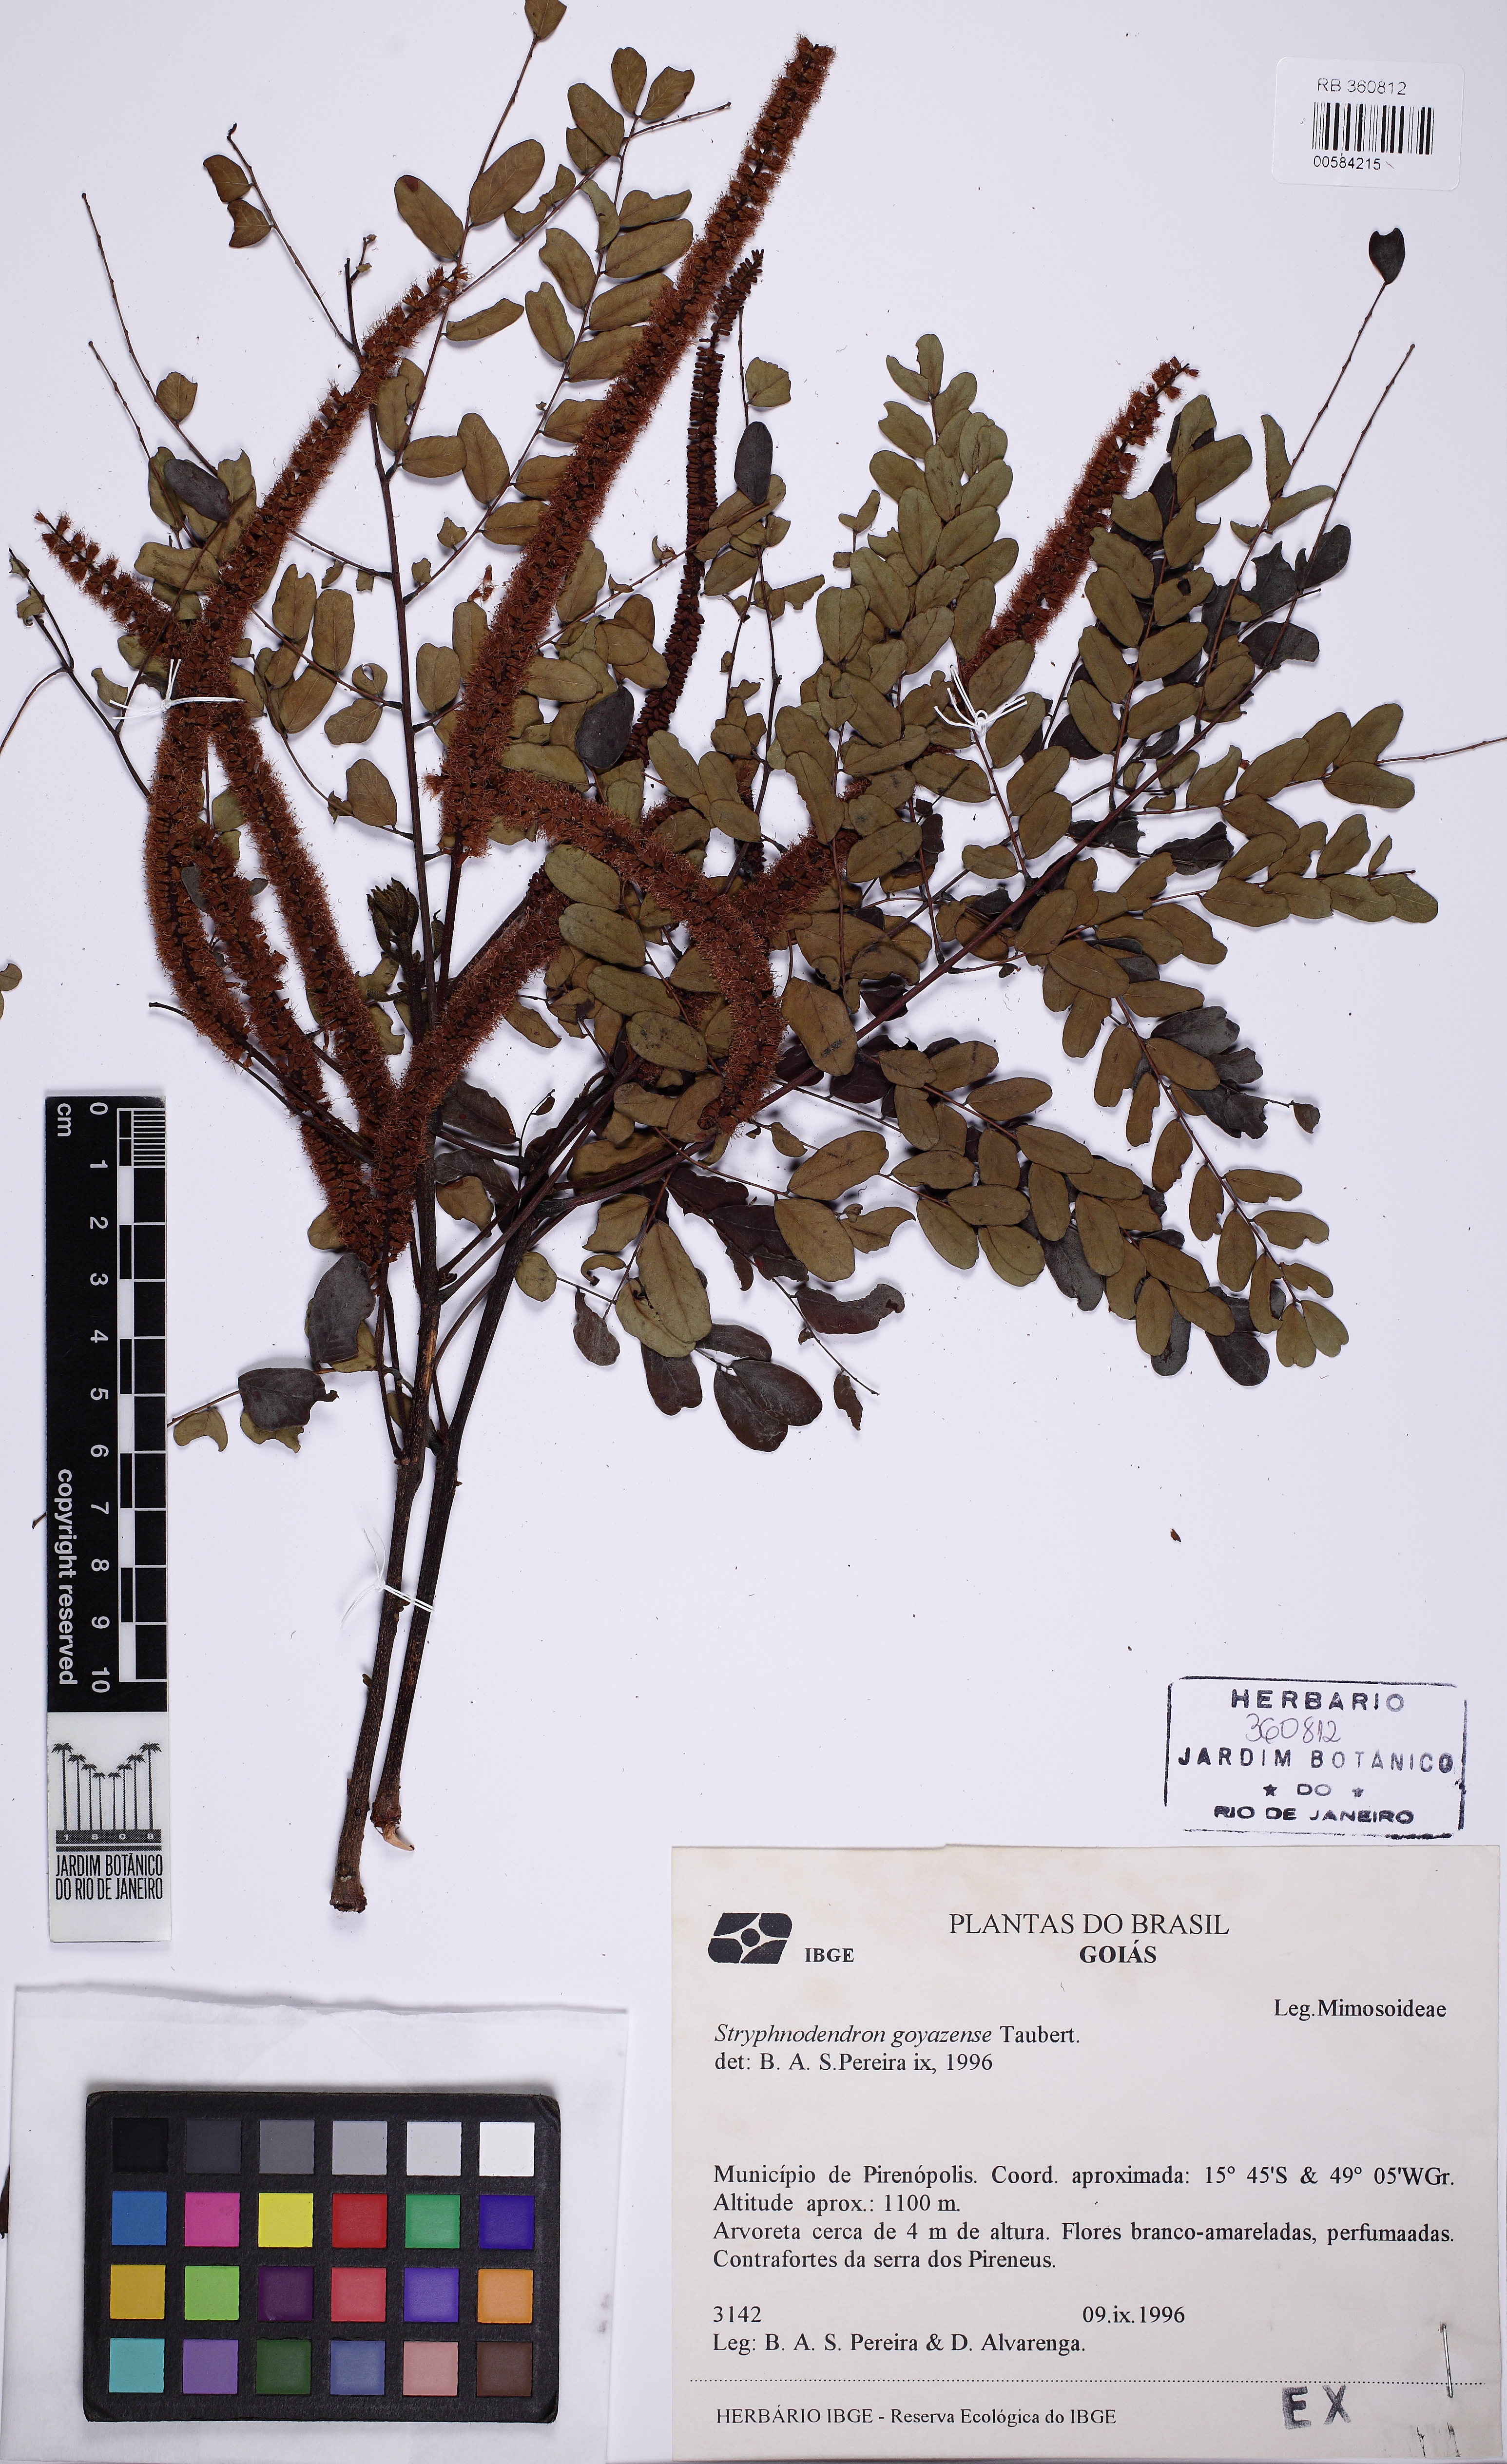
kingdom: Plantae
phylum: Tracheophyta
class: Magnoliopsida
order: Fabales
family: Fabaceae
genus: Stryphnodendron
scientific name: Stryphnodendron rotundifolium
